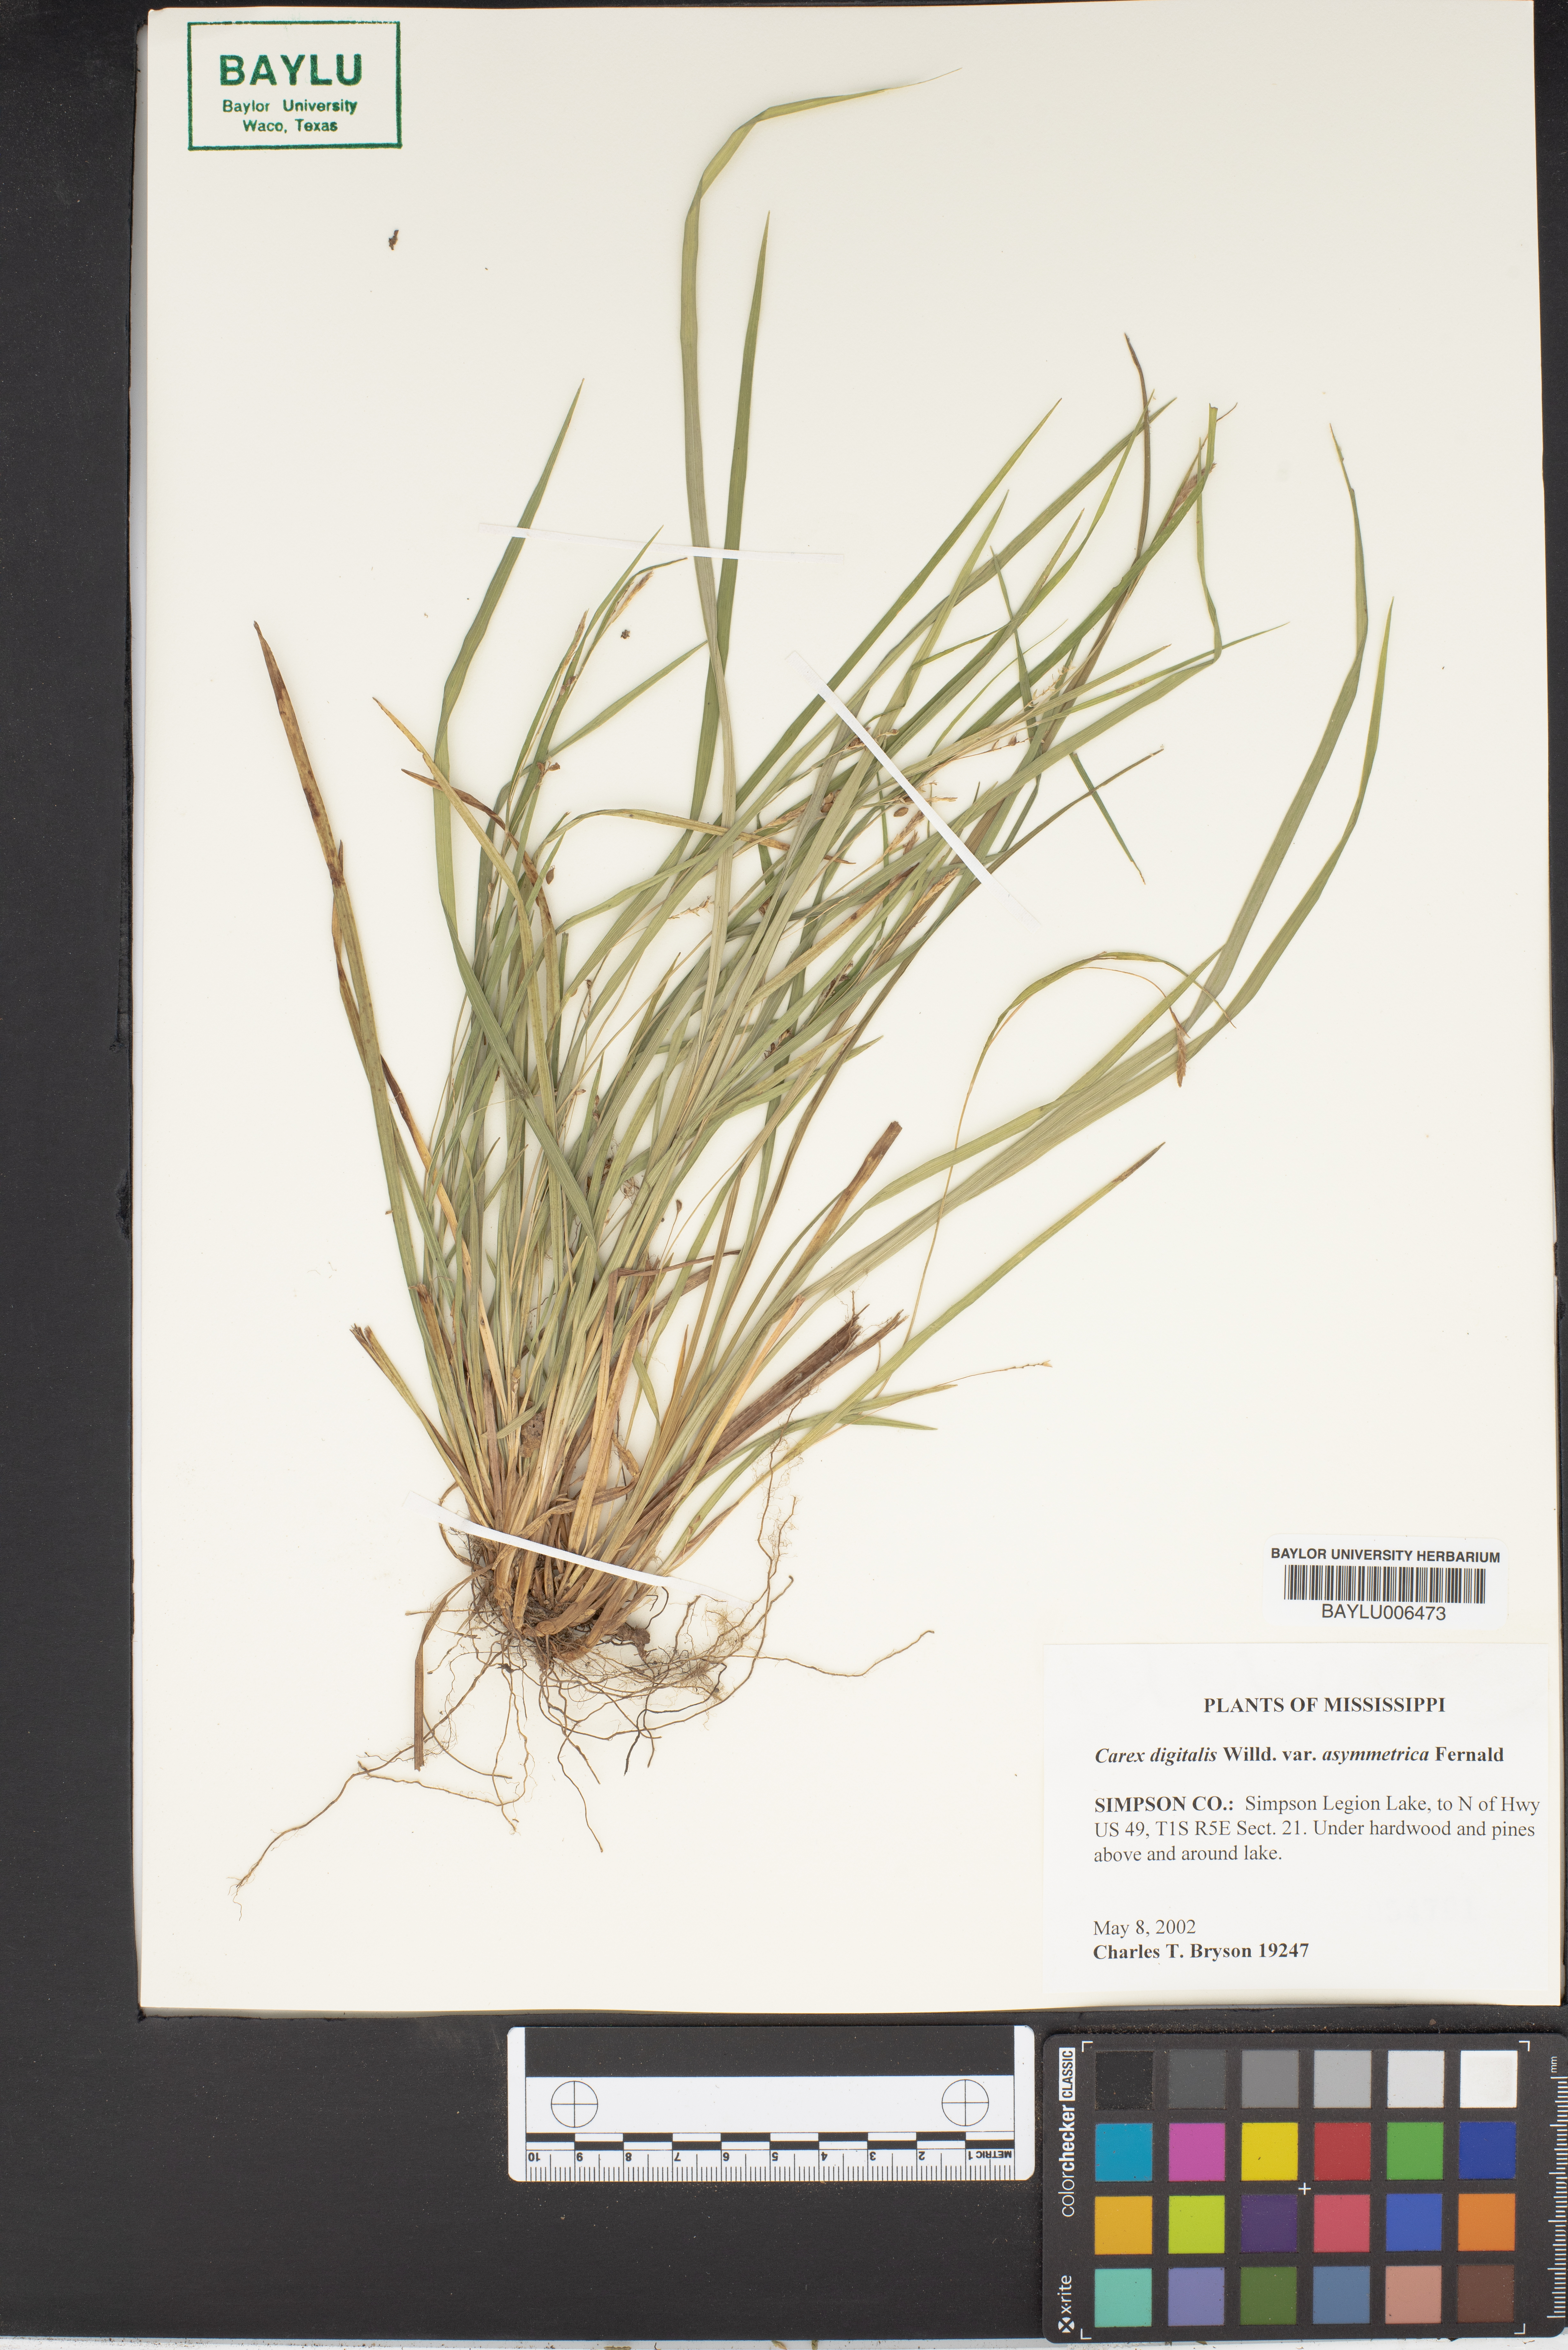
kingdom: Plantae
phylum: Tracheophyta
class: Liliopsida
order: Poales
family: Cyperaceae
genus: Carex
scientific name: Carex digitalis
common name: Slender wood sedge
